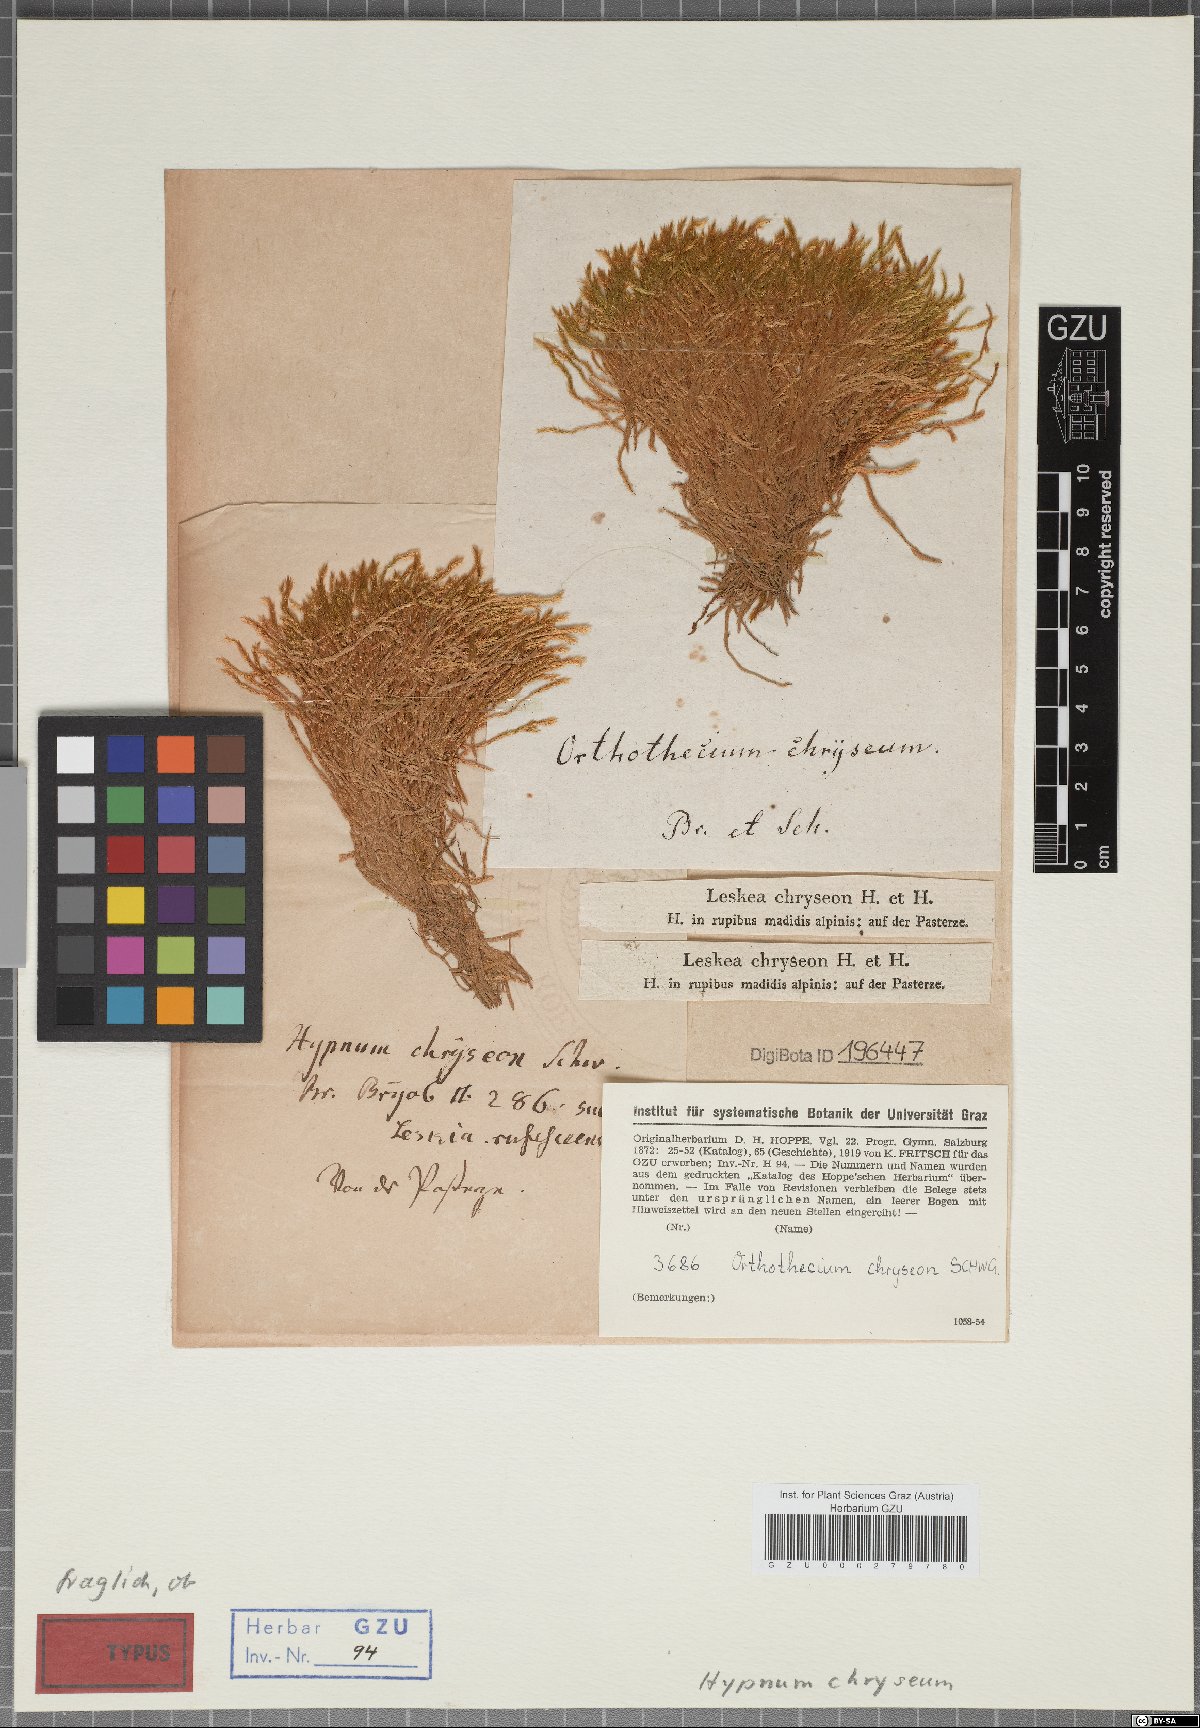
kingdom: Plantae
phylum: Bryophyta
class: Bryopsida
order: Hypnales
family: Plagiotheciaceae
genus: Orthothecium
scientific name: Orthothecium chryseon
